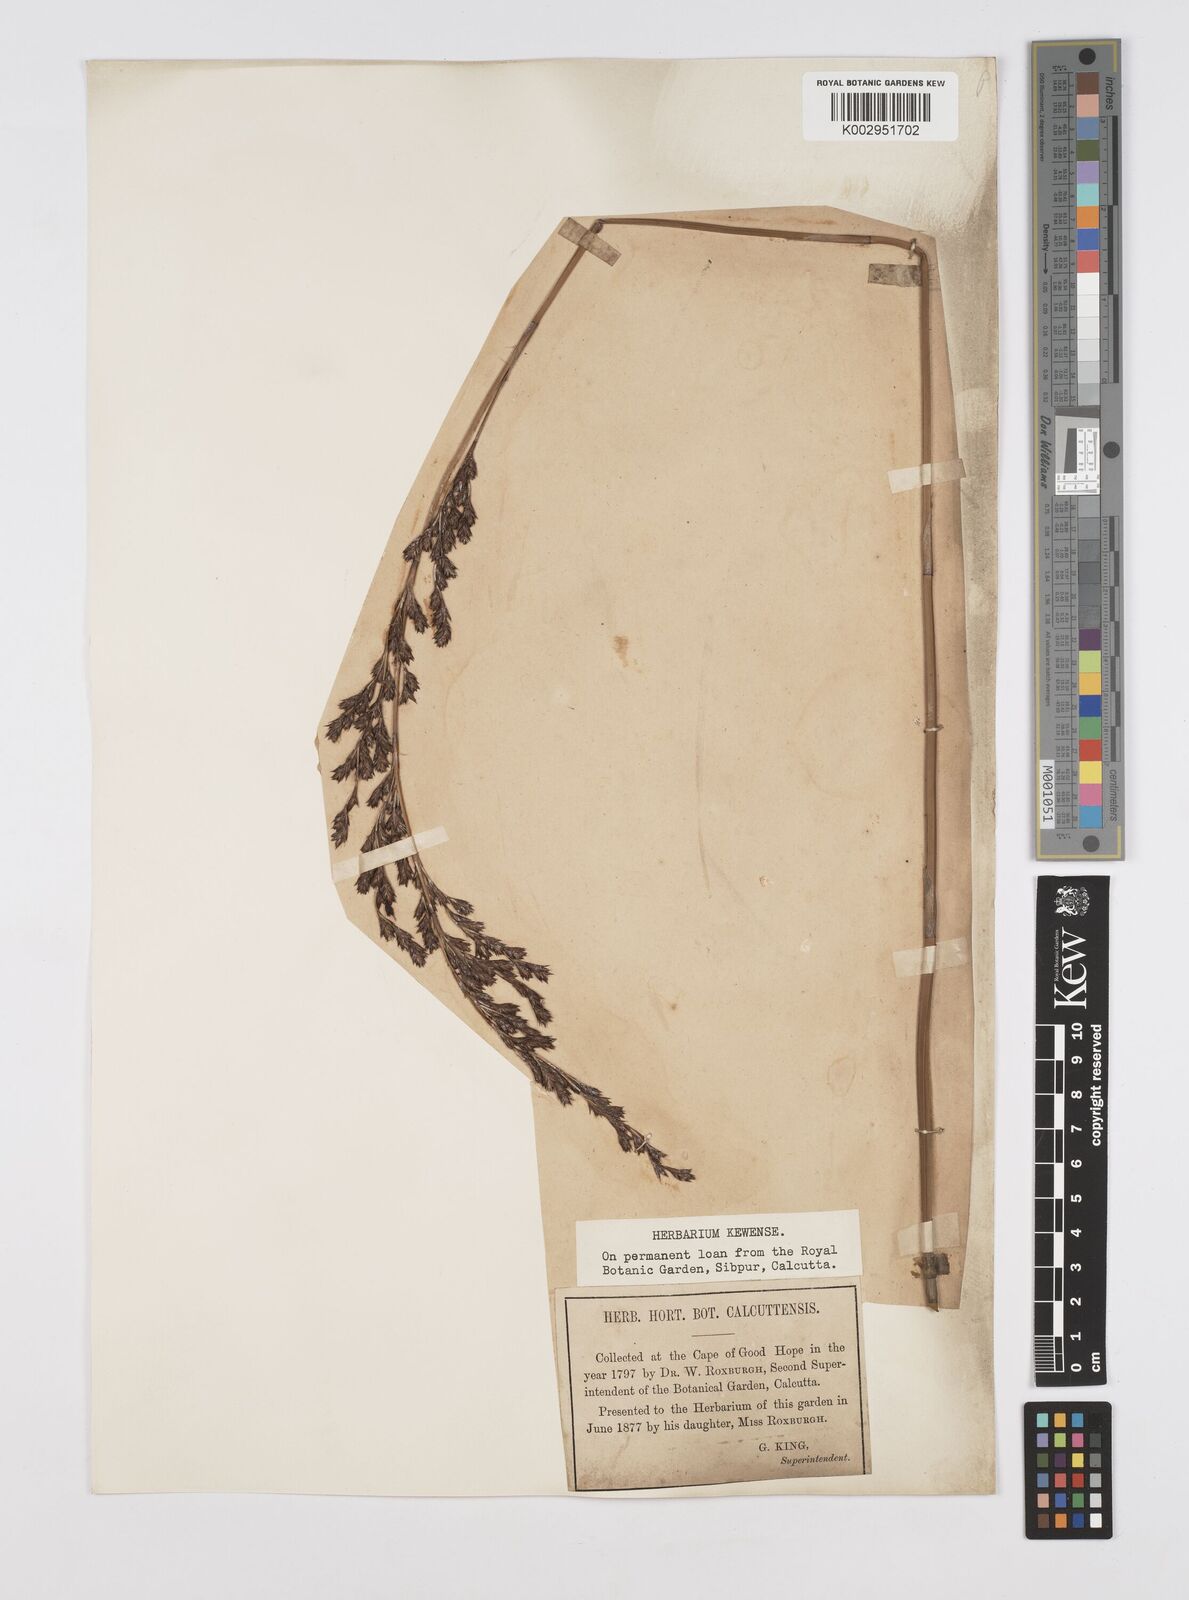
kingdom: Plantae
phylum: Tracheophyta
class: Liliopsida
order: Poales
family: Restionaceae
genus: Restio
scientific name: Restio tetragonus
